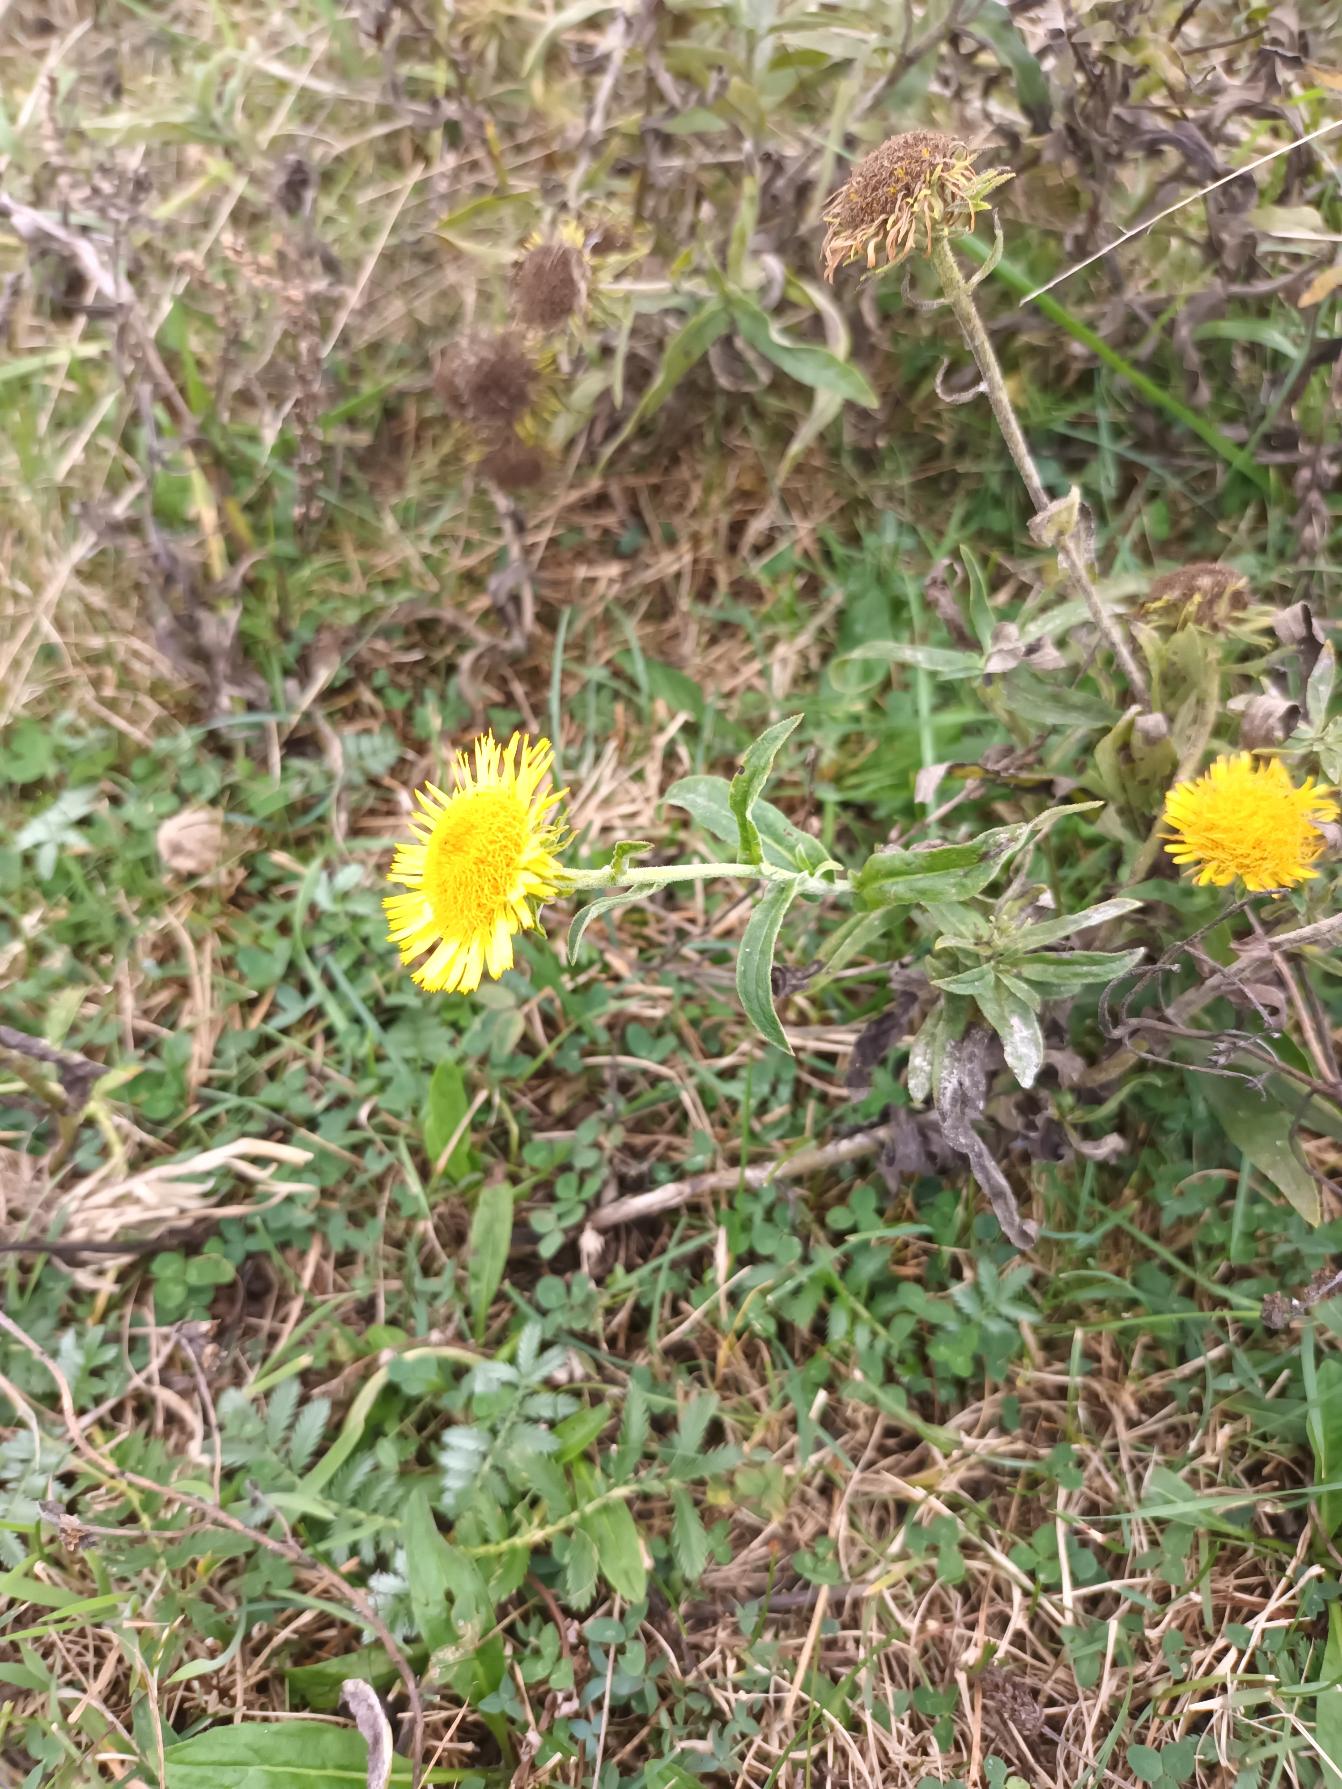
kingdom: Plantae
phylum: Tracheophyta
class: Magnoliopsida
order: Asterales
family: Asteraceae
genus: Pentanema
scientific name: Pentanema britannicum
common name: Soløje-alant
